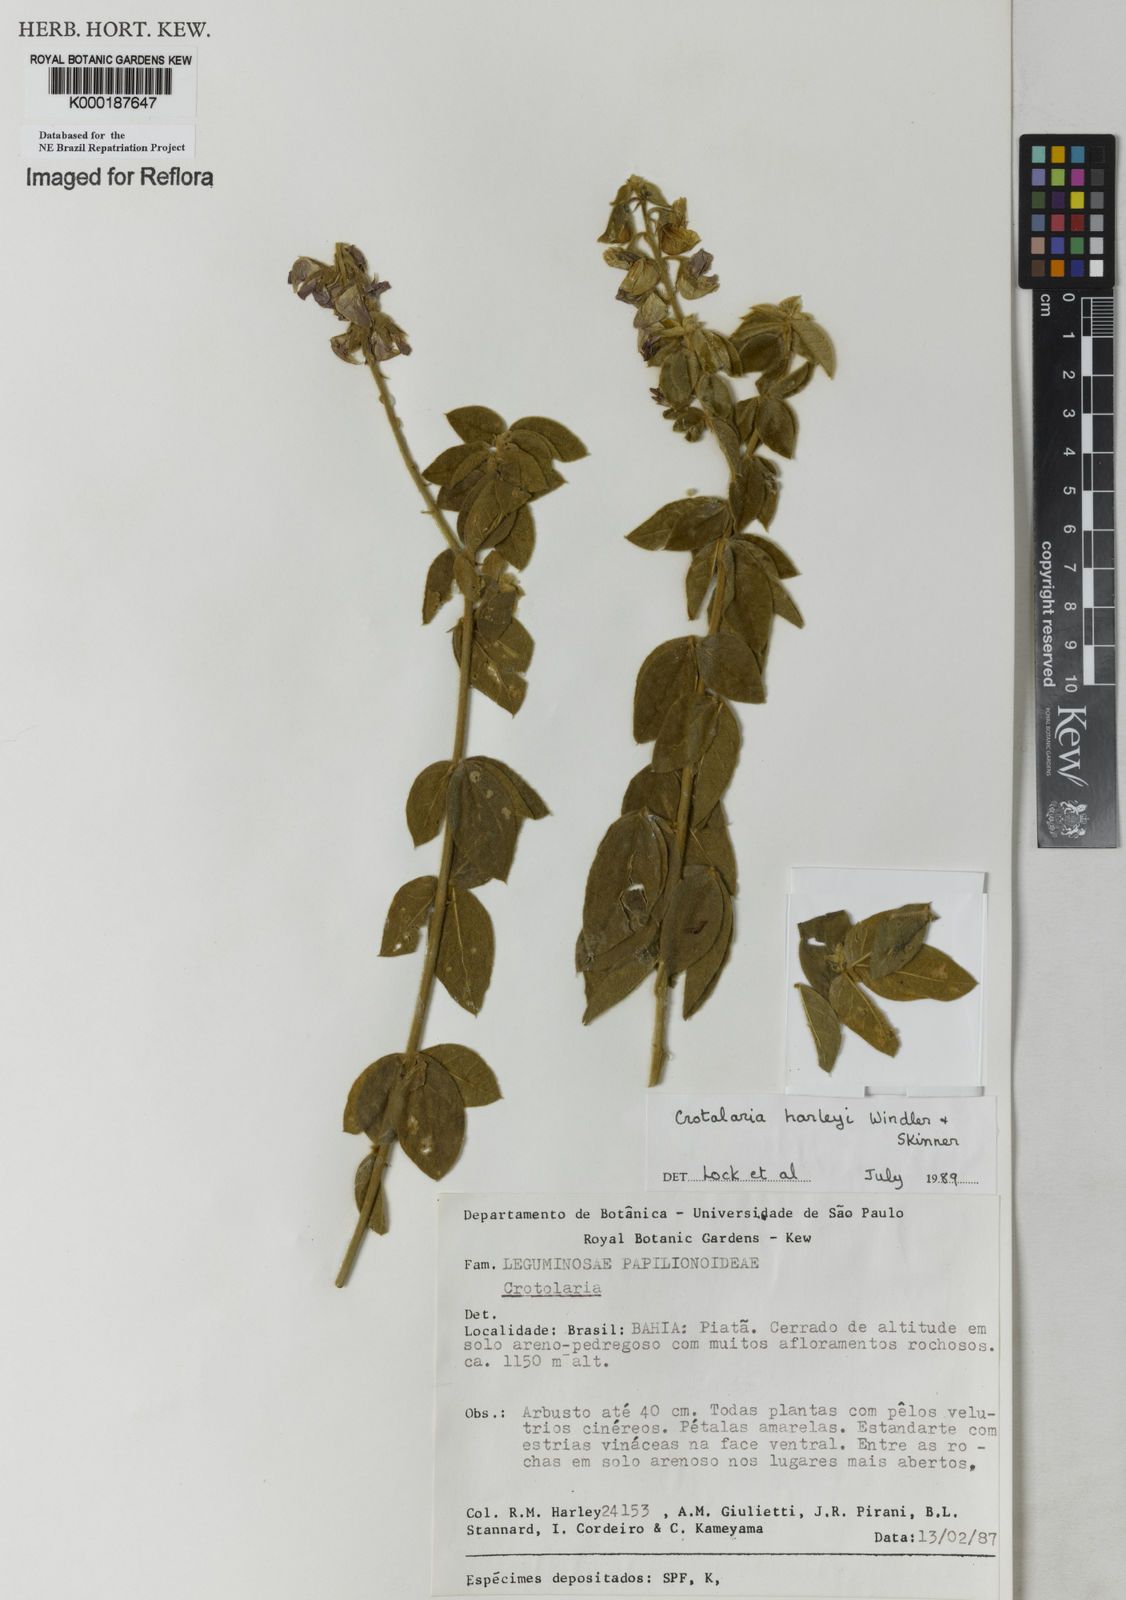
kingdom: Plantae
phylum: Tracheophyta
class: Magnoliopsida
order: Fabales
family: Fabaceae
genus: Crotalaria
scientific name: Crotalaria harleyi
